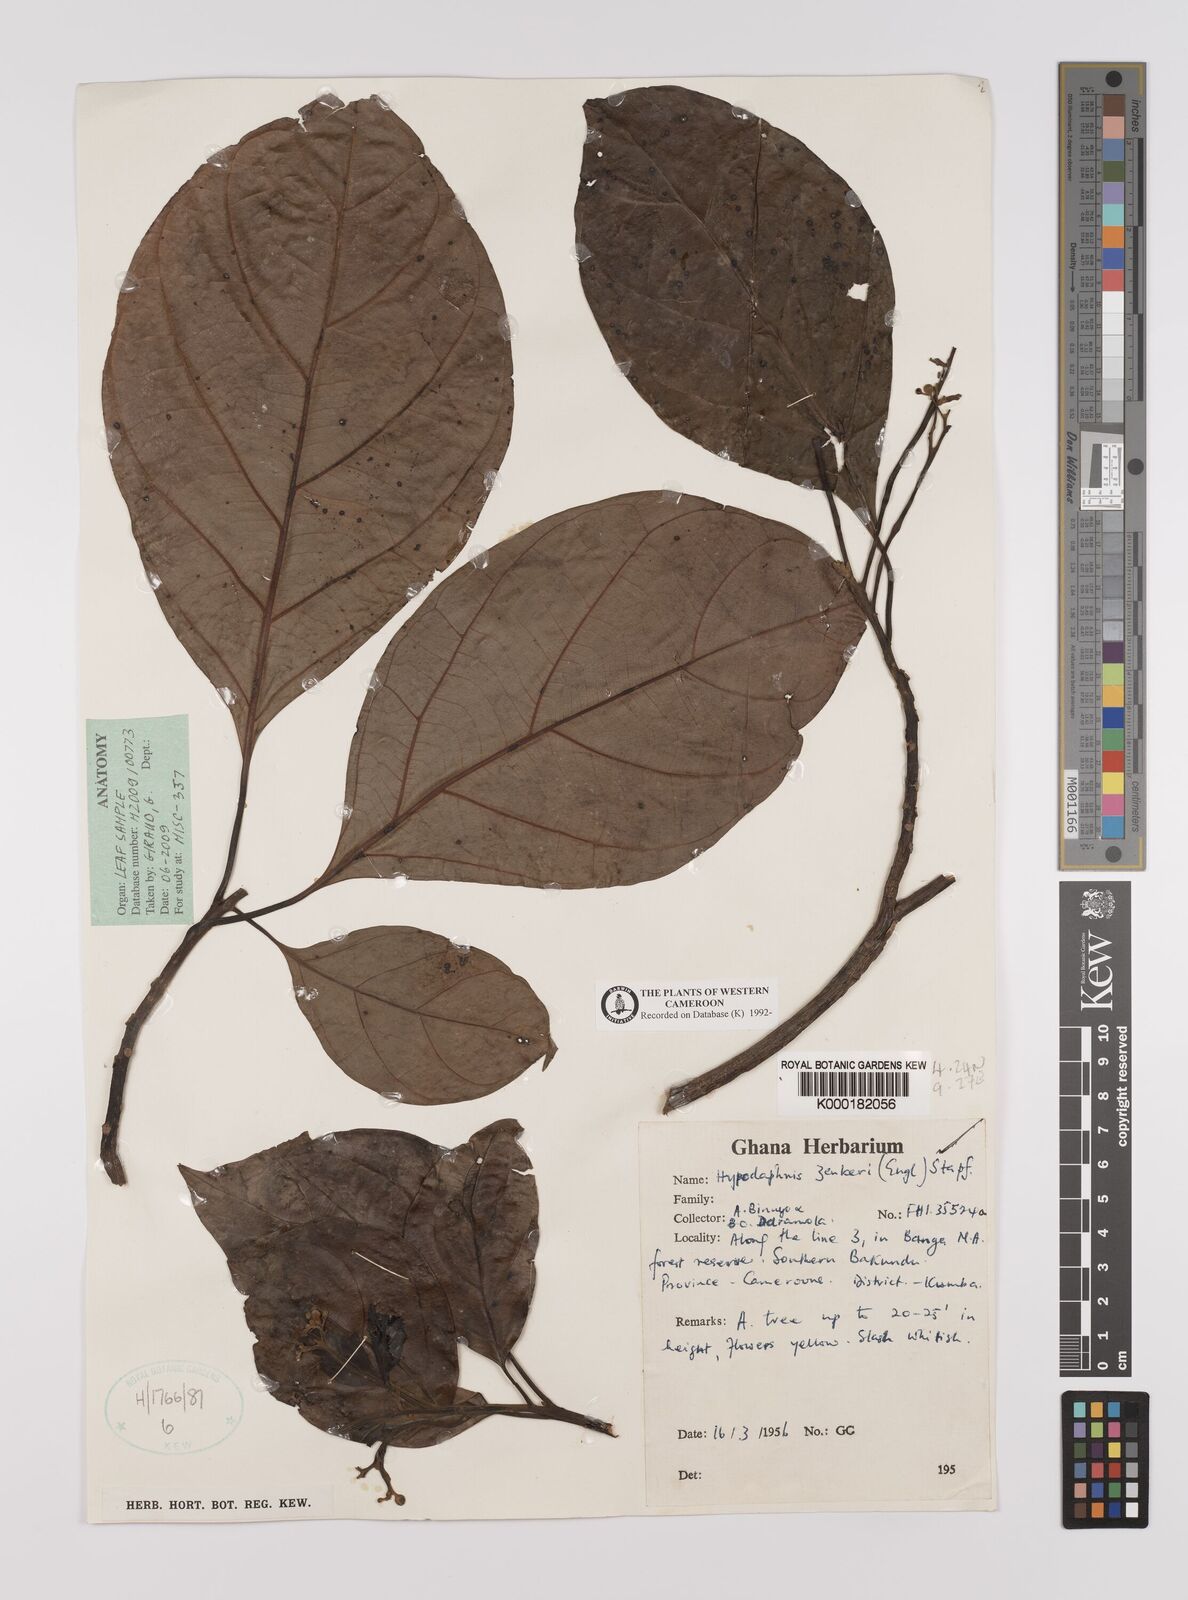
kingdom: Plantae
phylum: Tracheophyta
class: Magnoliopsida
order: Laurales
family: Lauraceae
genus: Hypodaphnis
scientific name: Hypodaphnis zenkeri
